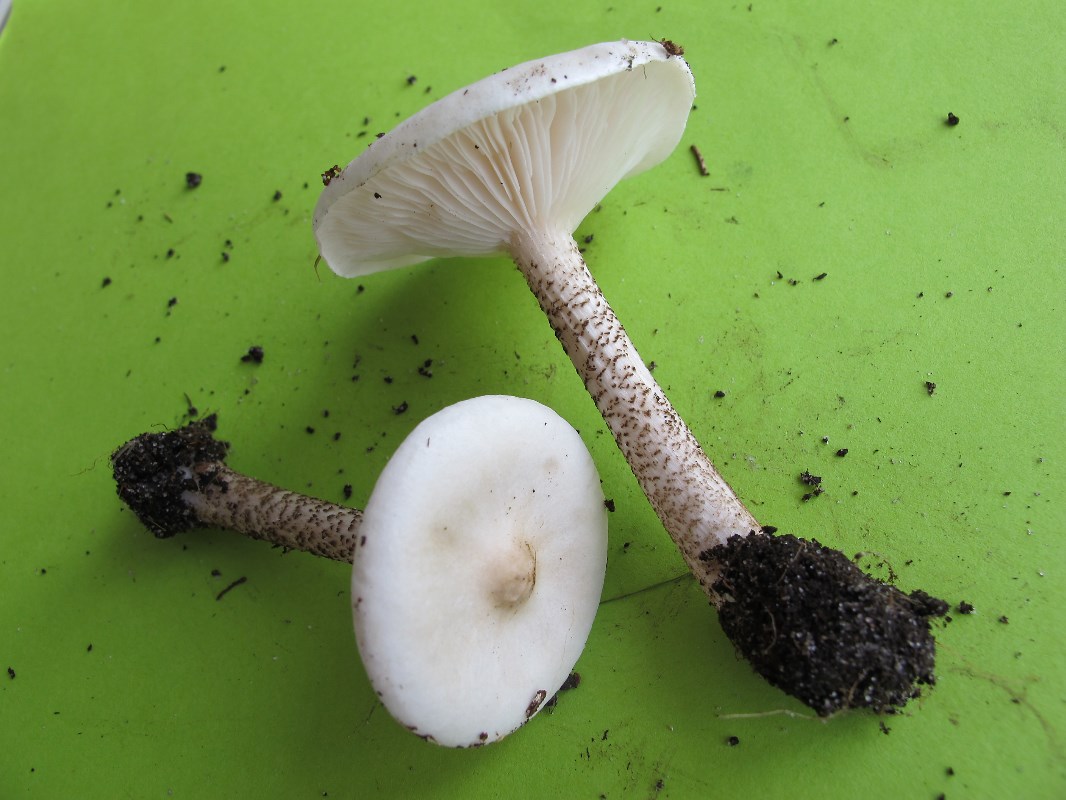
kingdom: Fungi
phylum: Basidiomycota
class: Agaricomycetes
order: Agaricales
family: Tricholomataceae
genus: Melanoleuca
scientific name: Melanoleuca verrucipes
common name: rufodet munkehat
